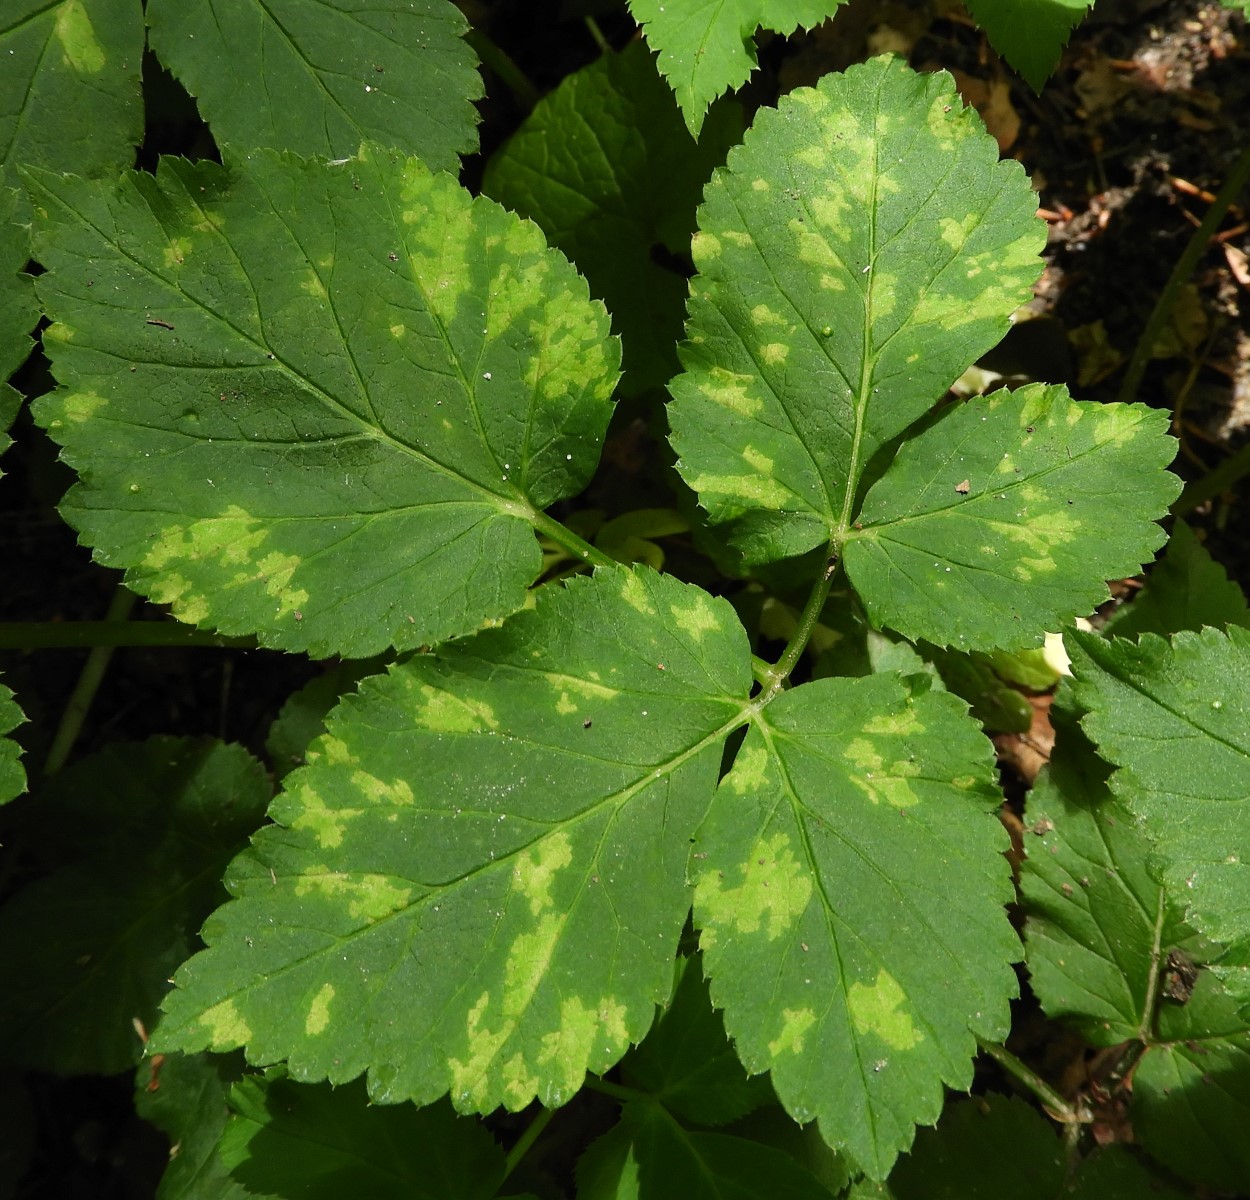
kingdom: Chromista
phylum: Oomycota
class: Peronosporea
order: Peronosporales
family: Peronosporaceae
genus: Peronospora
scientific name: Peronospora crustosa
